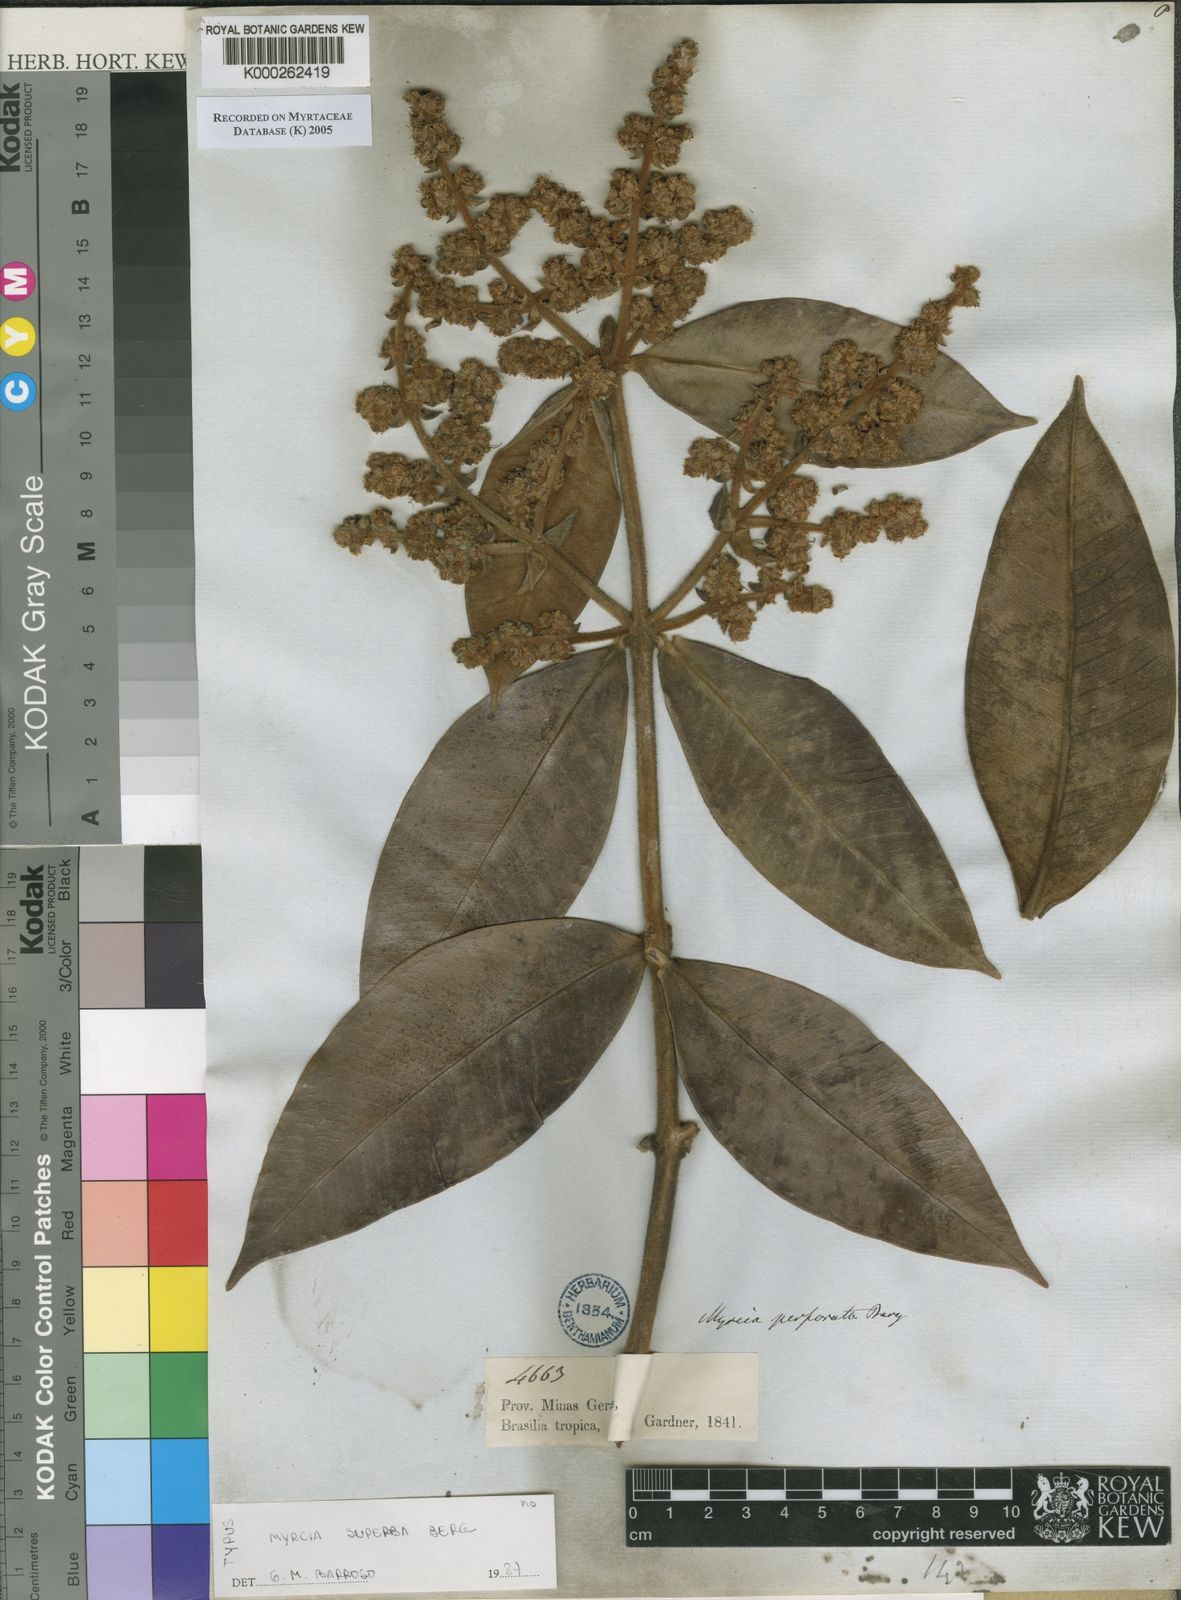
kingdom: Plantae
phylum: Tracheophyta
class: Magnoliopsida
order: Myrtales
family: Myrtaceae
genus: Myrcia
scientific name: Myrcia perforata
